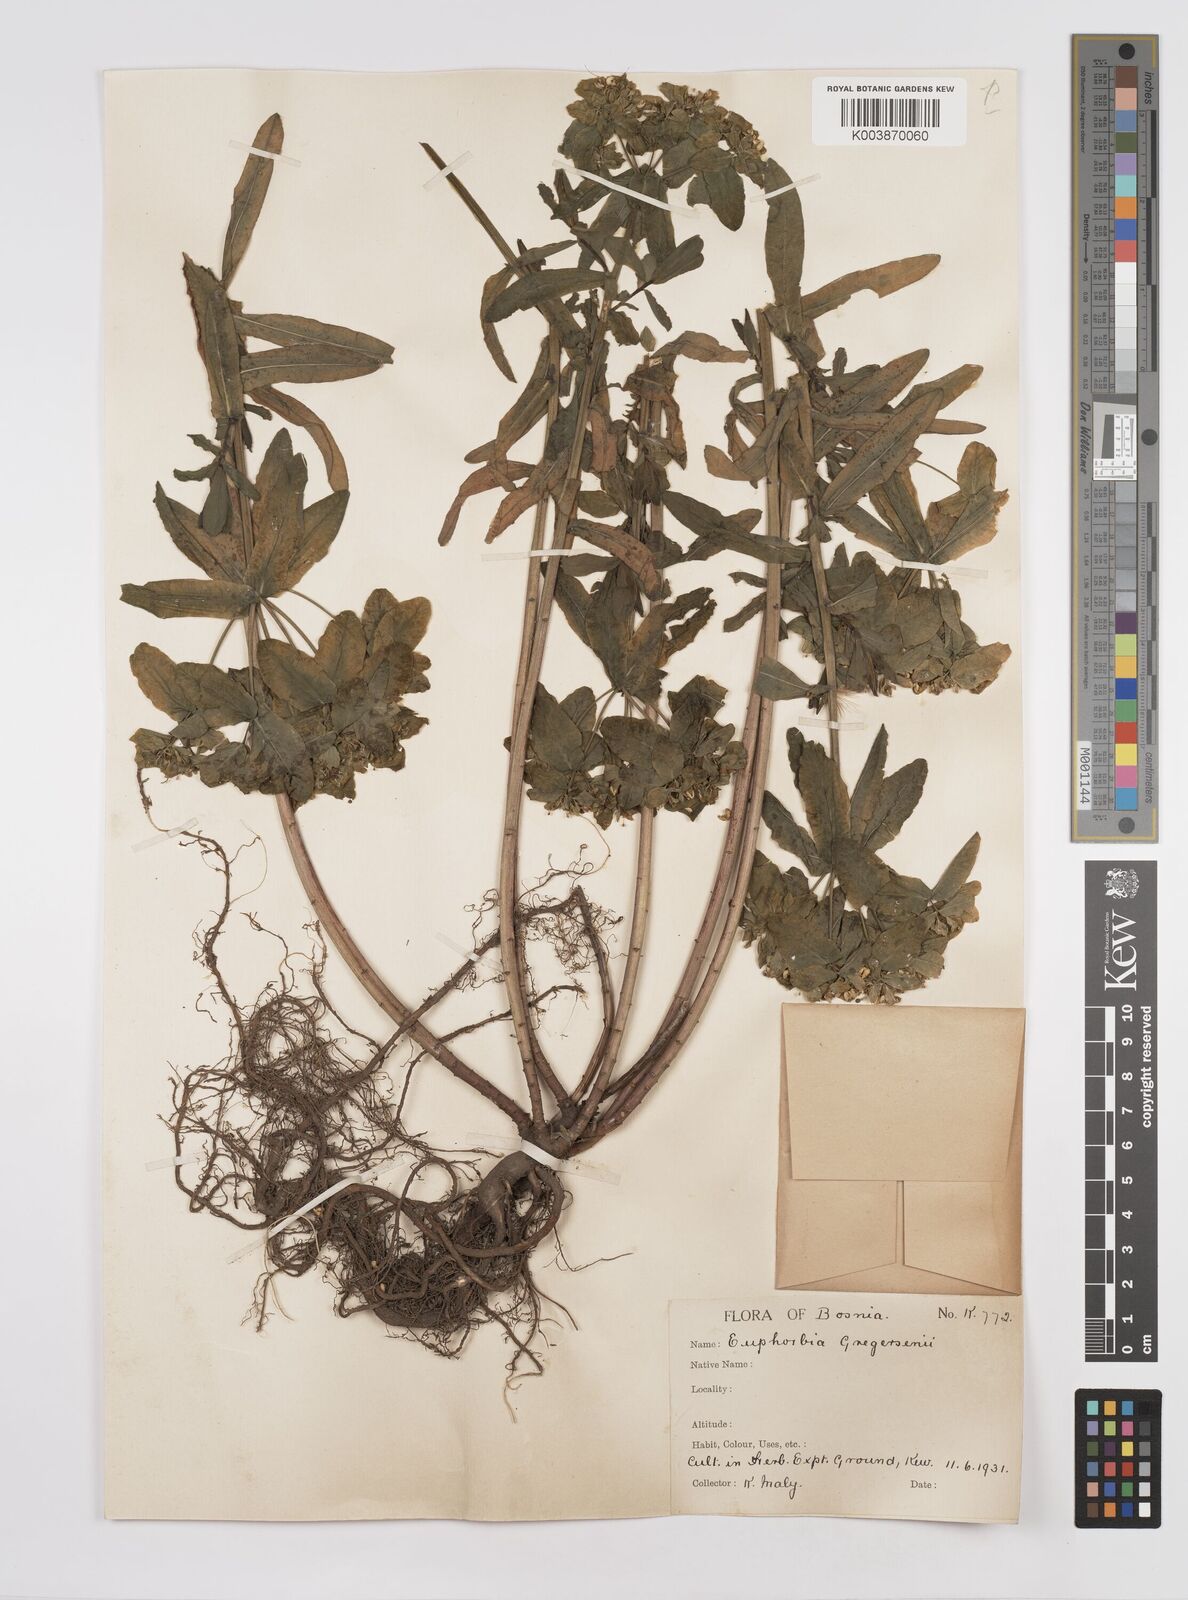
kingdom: Plantae
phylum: Tracheophyta
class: Magnoliopsida
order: Malpighiales
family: Euphorbiaceae
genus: Euphorbia
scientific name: Euphorbia gregersenii
